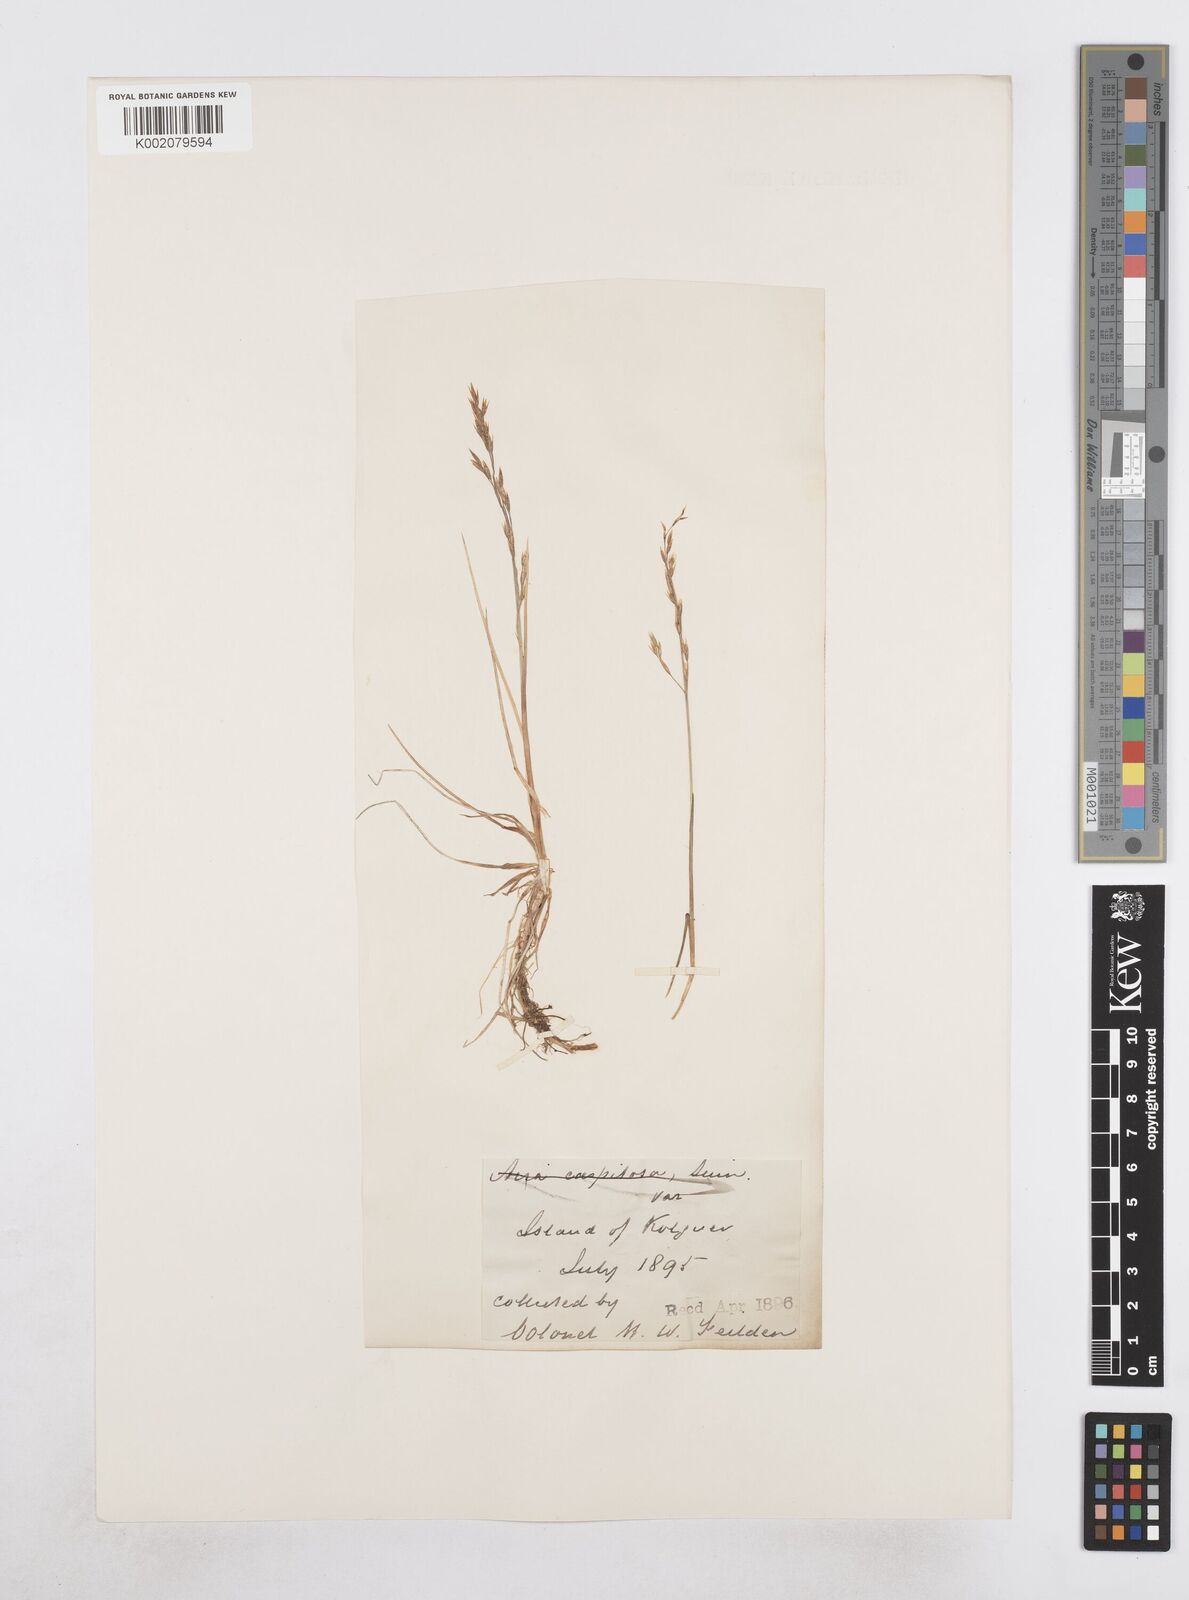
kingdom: Plantae
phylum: Tracheophyta
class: Liliopsida
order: Poales
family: Poaceae
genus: Dupontia
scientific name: Dupontia fisheri
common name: Tundra grass
